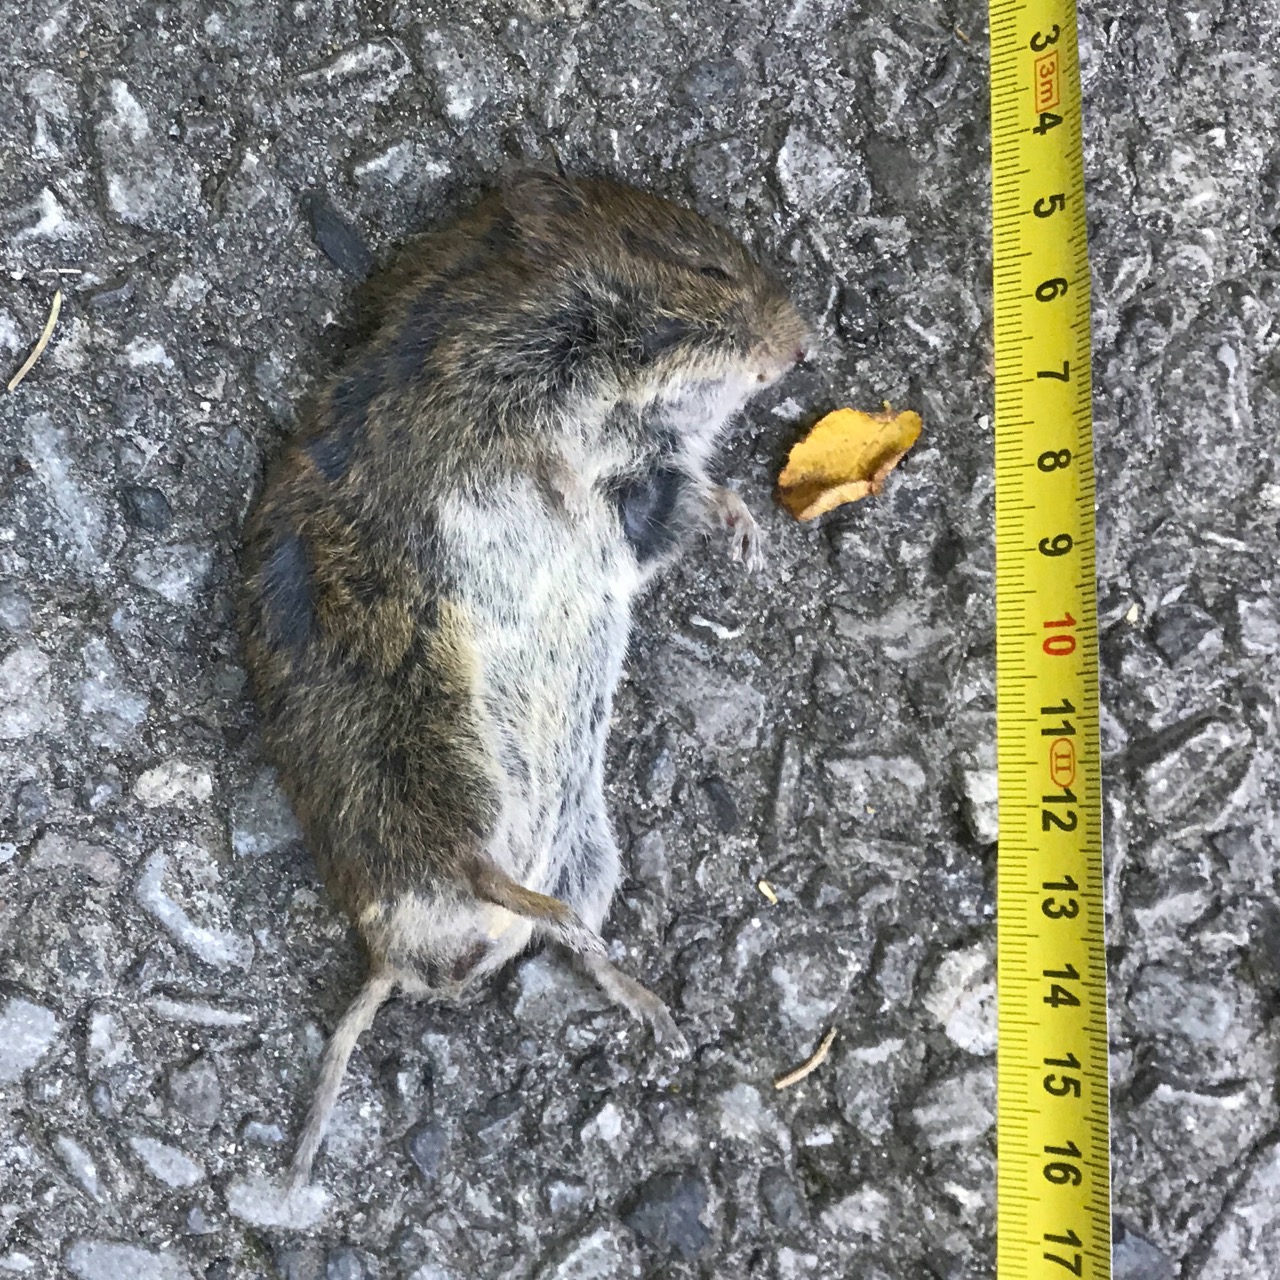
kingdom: Animalia
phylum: Chordata
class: Mammalia
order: Rodentia
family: Cricetidae
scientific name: Cricetidae
